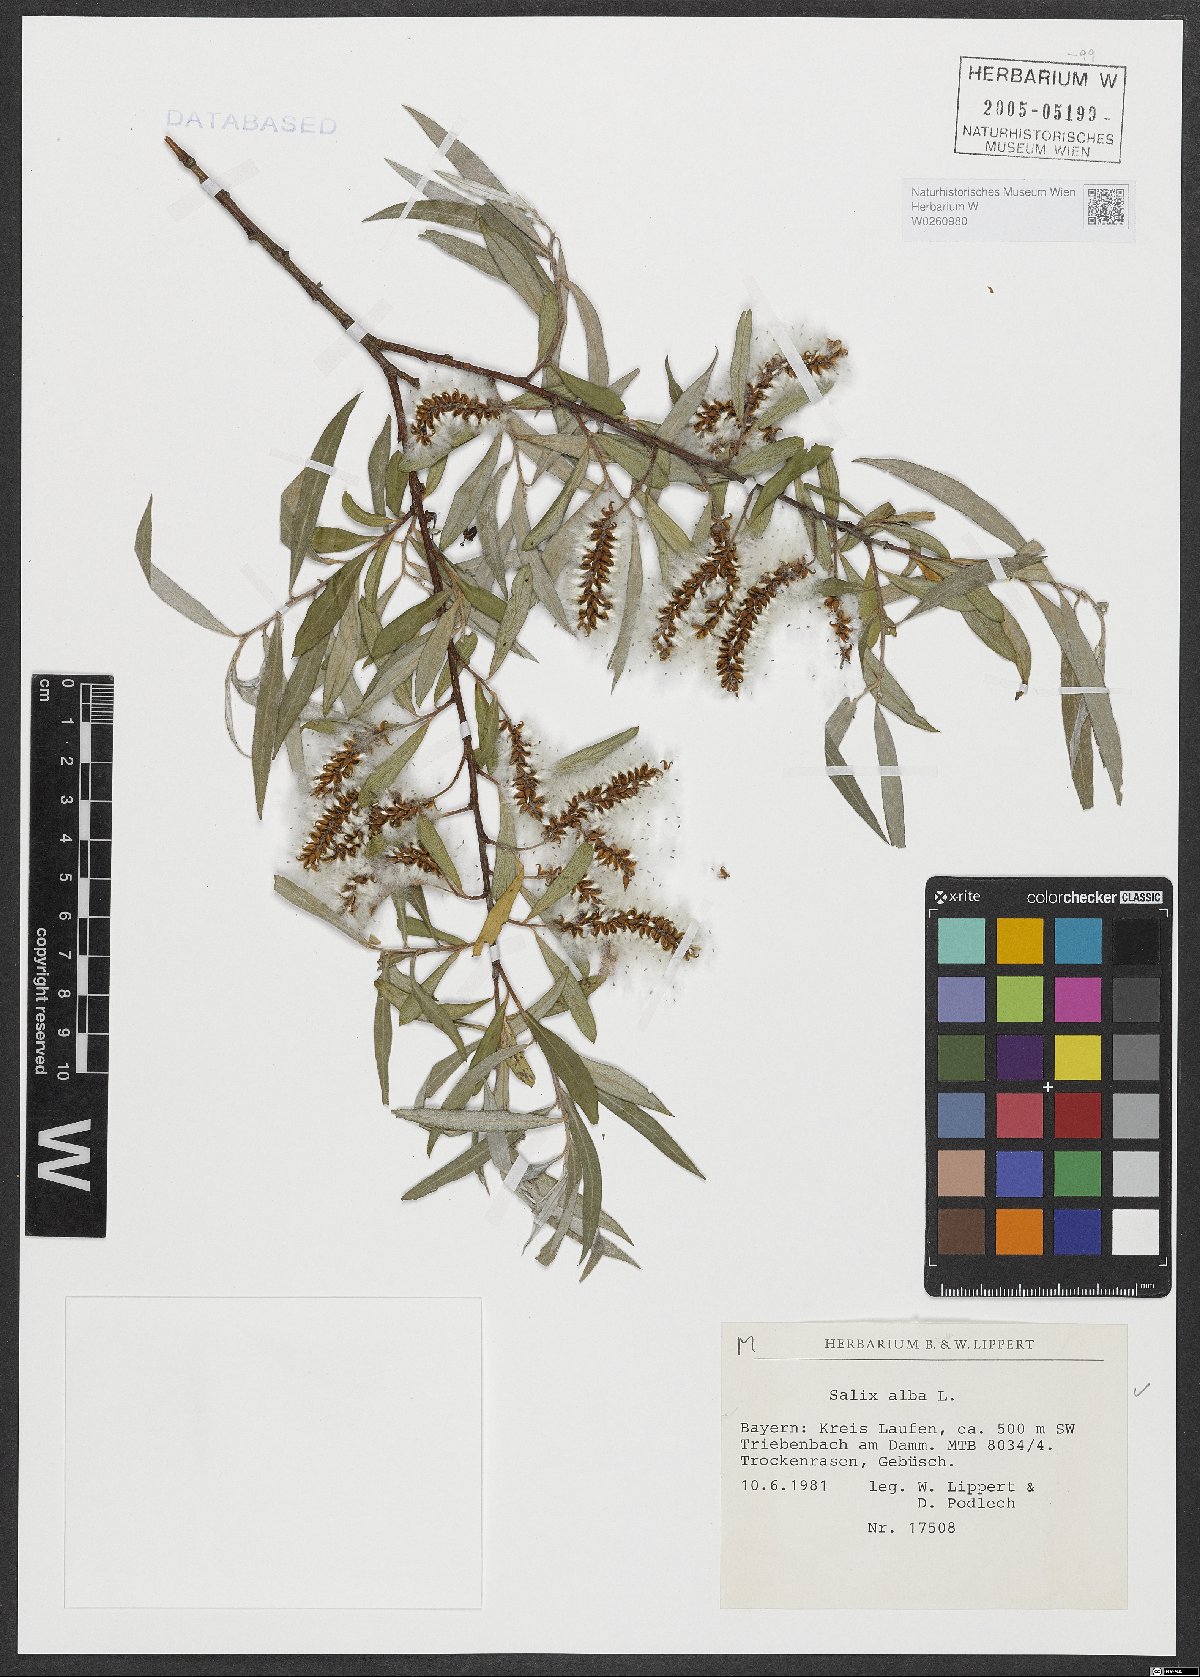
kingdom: Plantae
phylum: Tracheophyta
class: Magnoliopsida
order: Malpighiales
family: Salicaceae
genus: Salix
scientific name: Salix alba
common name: White willow
